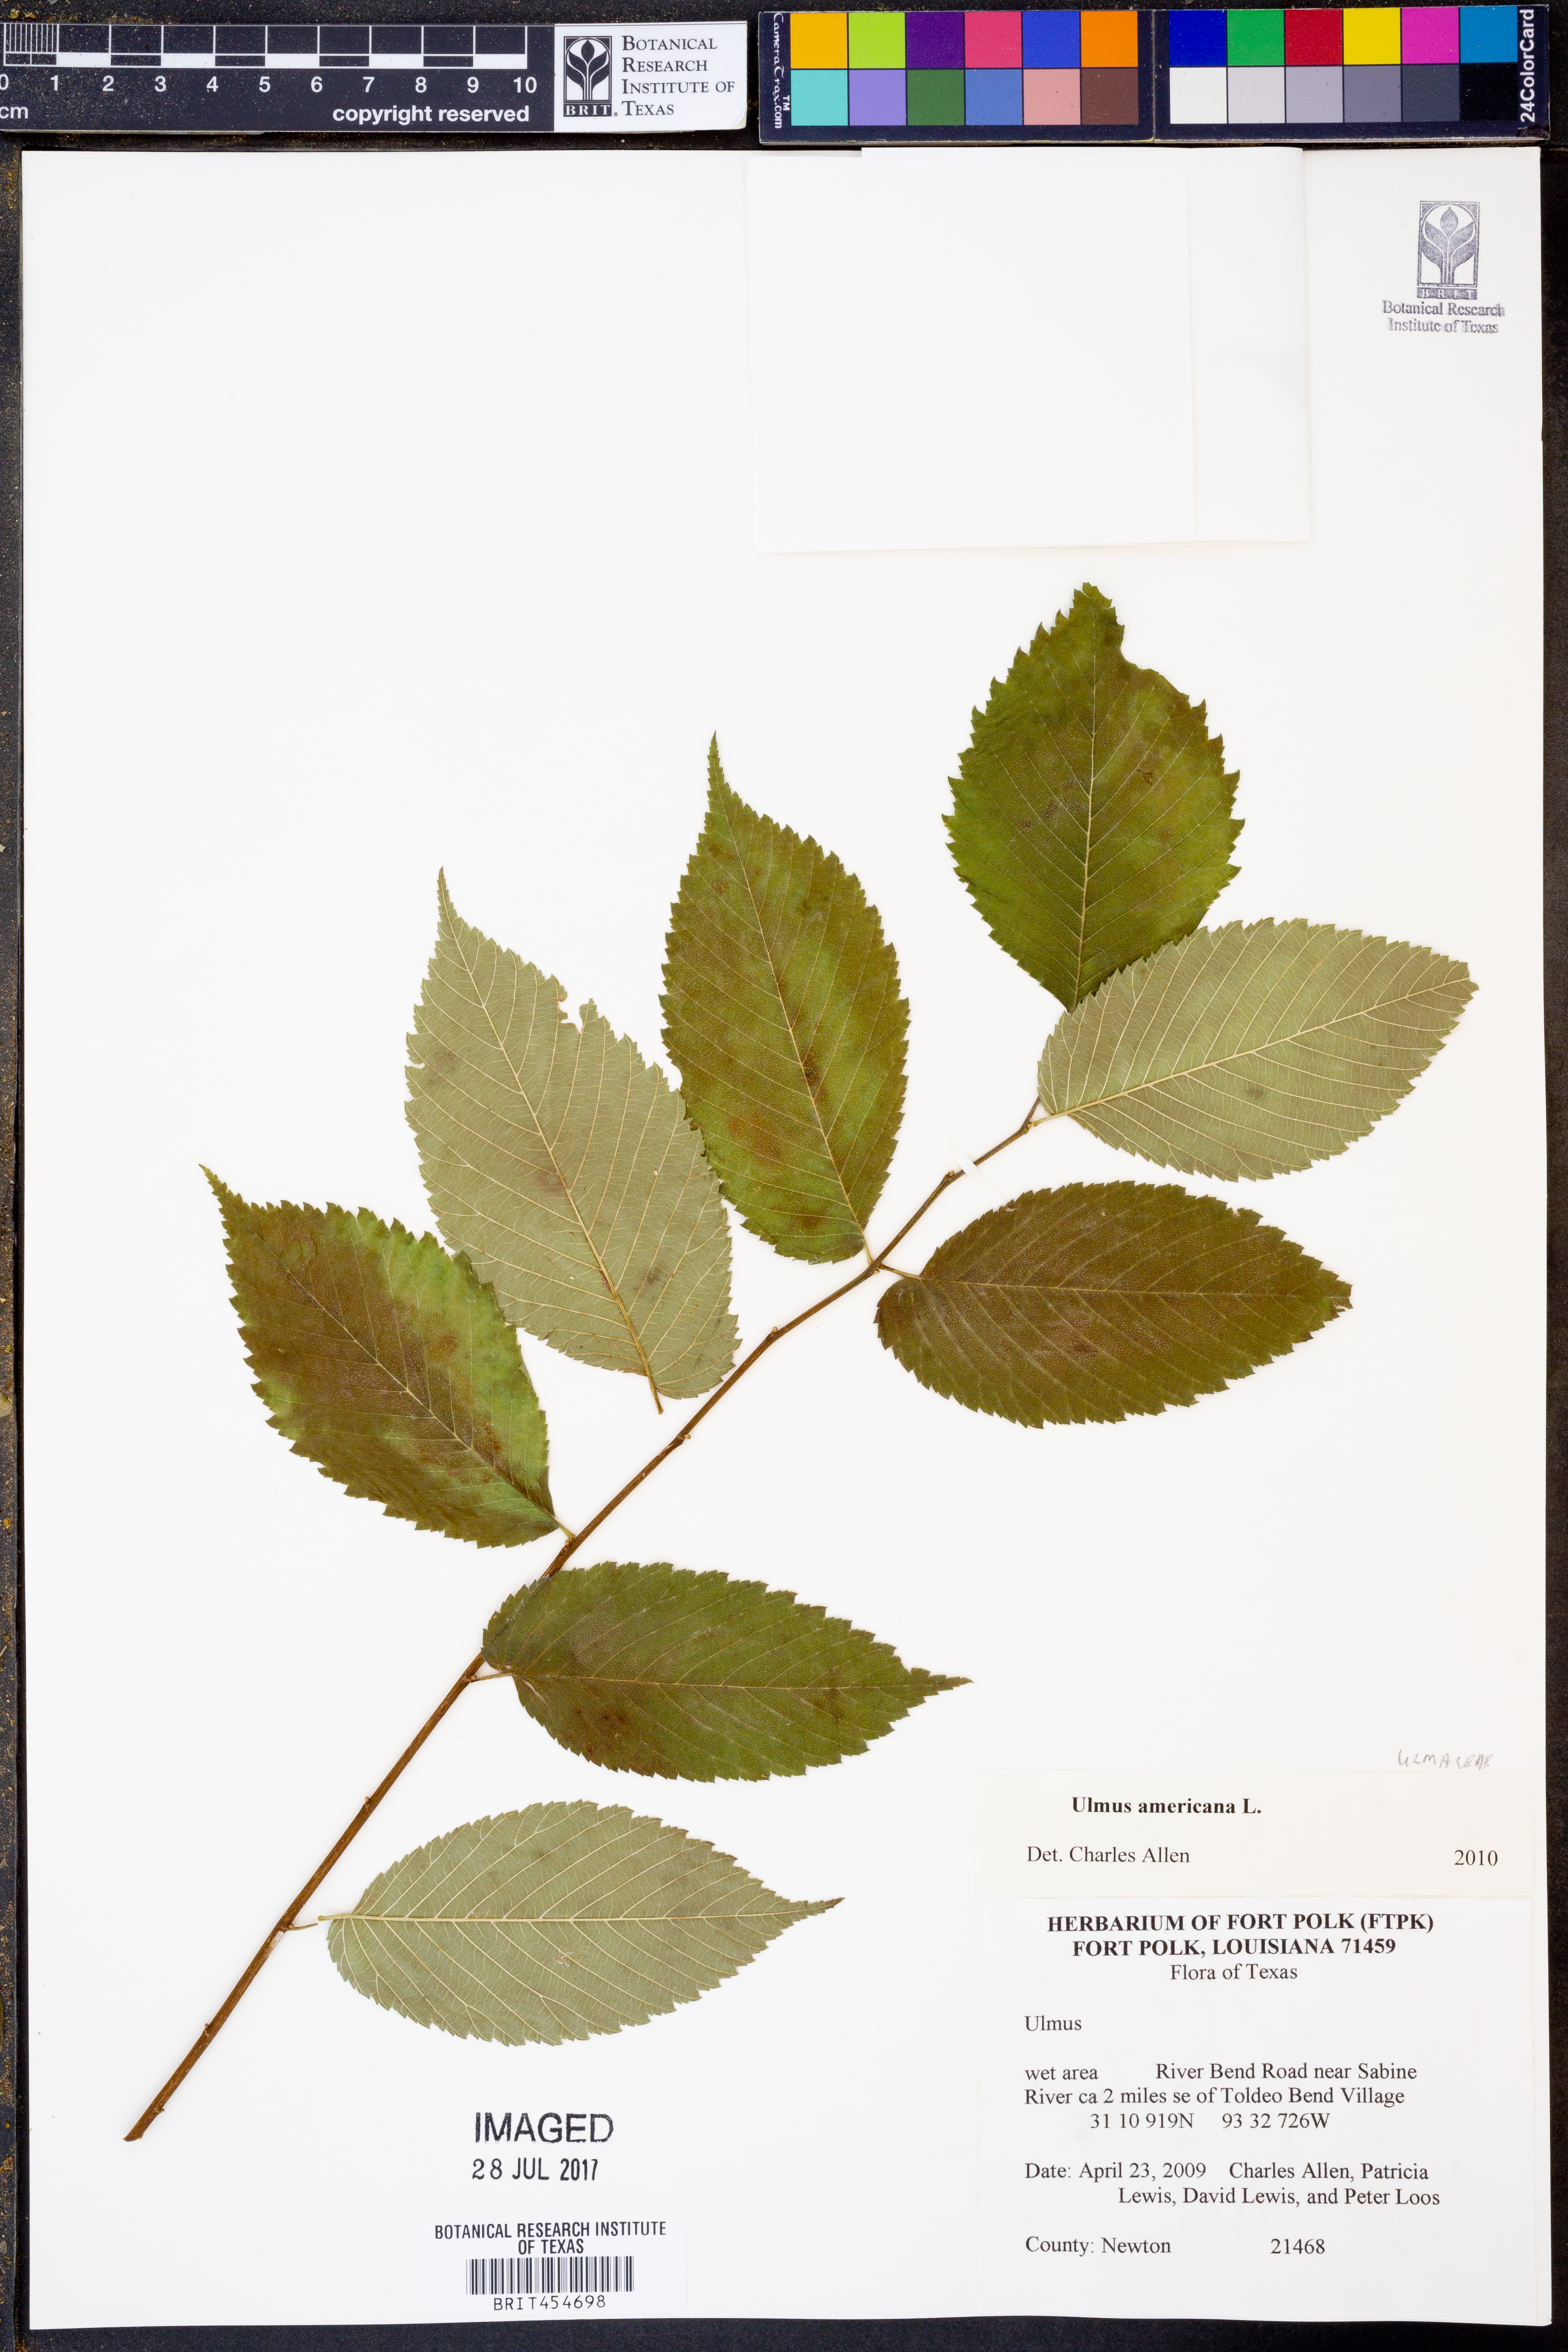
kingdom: Plantae
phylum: Tracheophyta
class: Magnoliopsida
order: Rosales
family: Ulmaceae
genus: Ulmus
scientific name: Ulmus americana
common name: American elm
